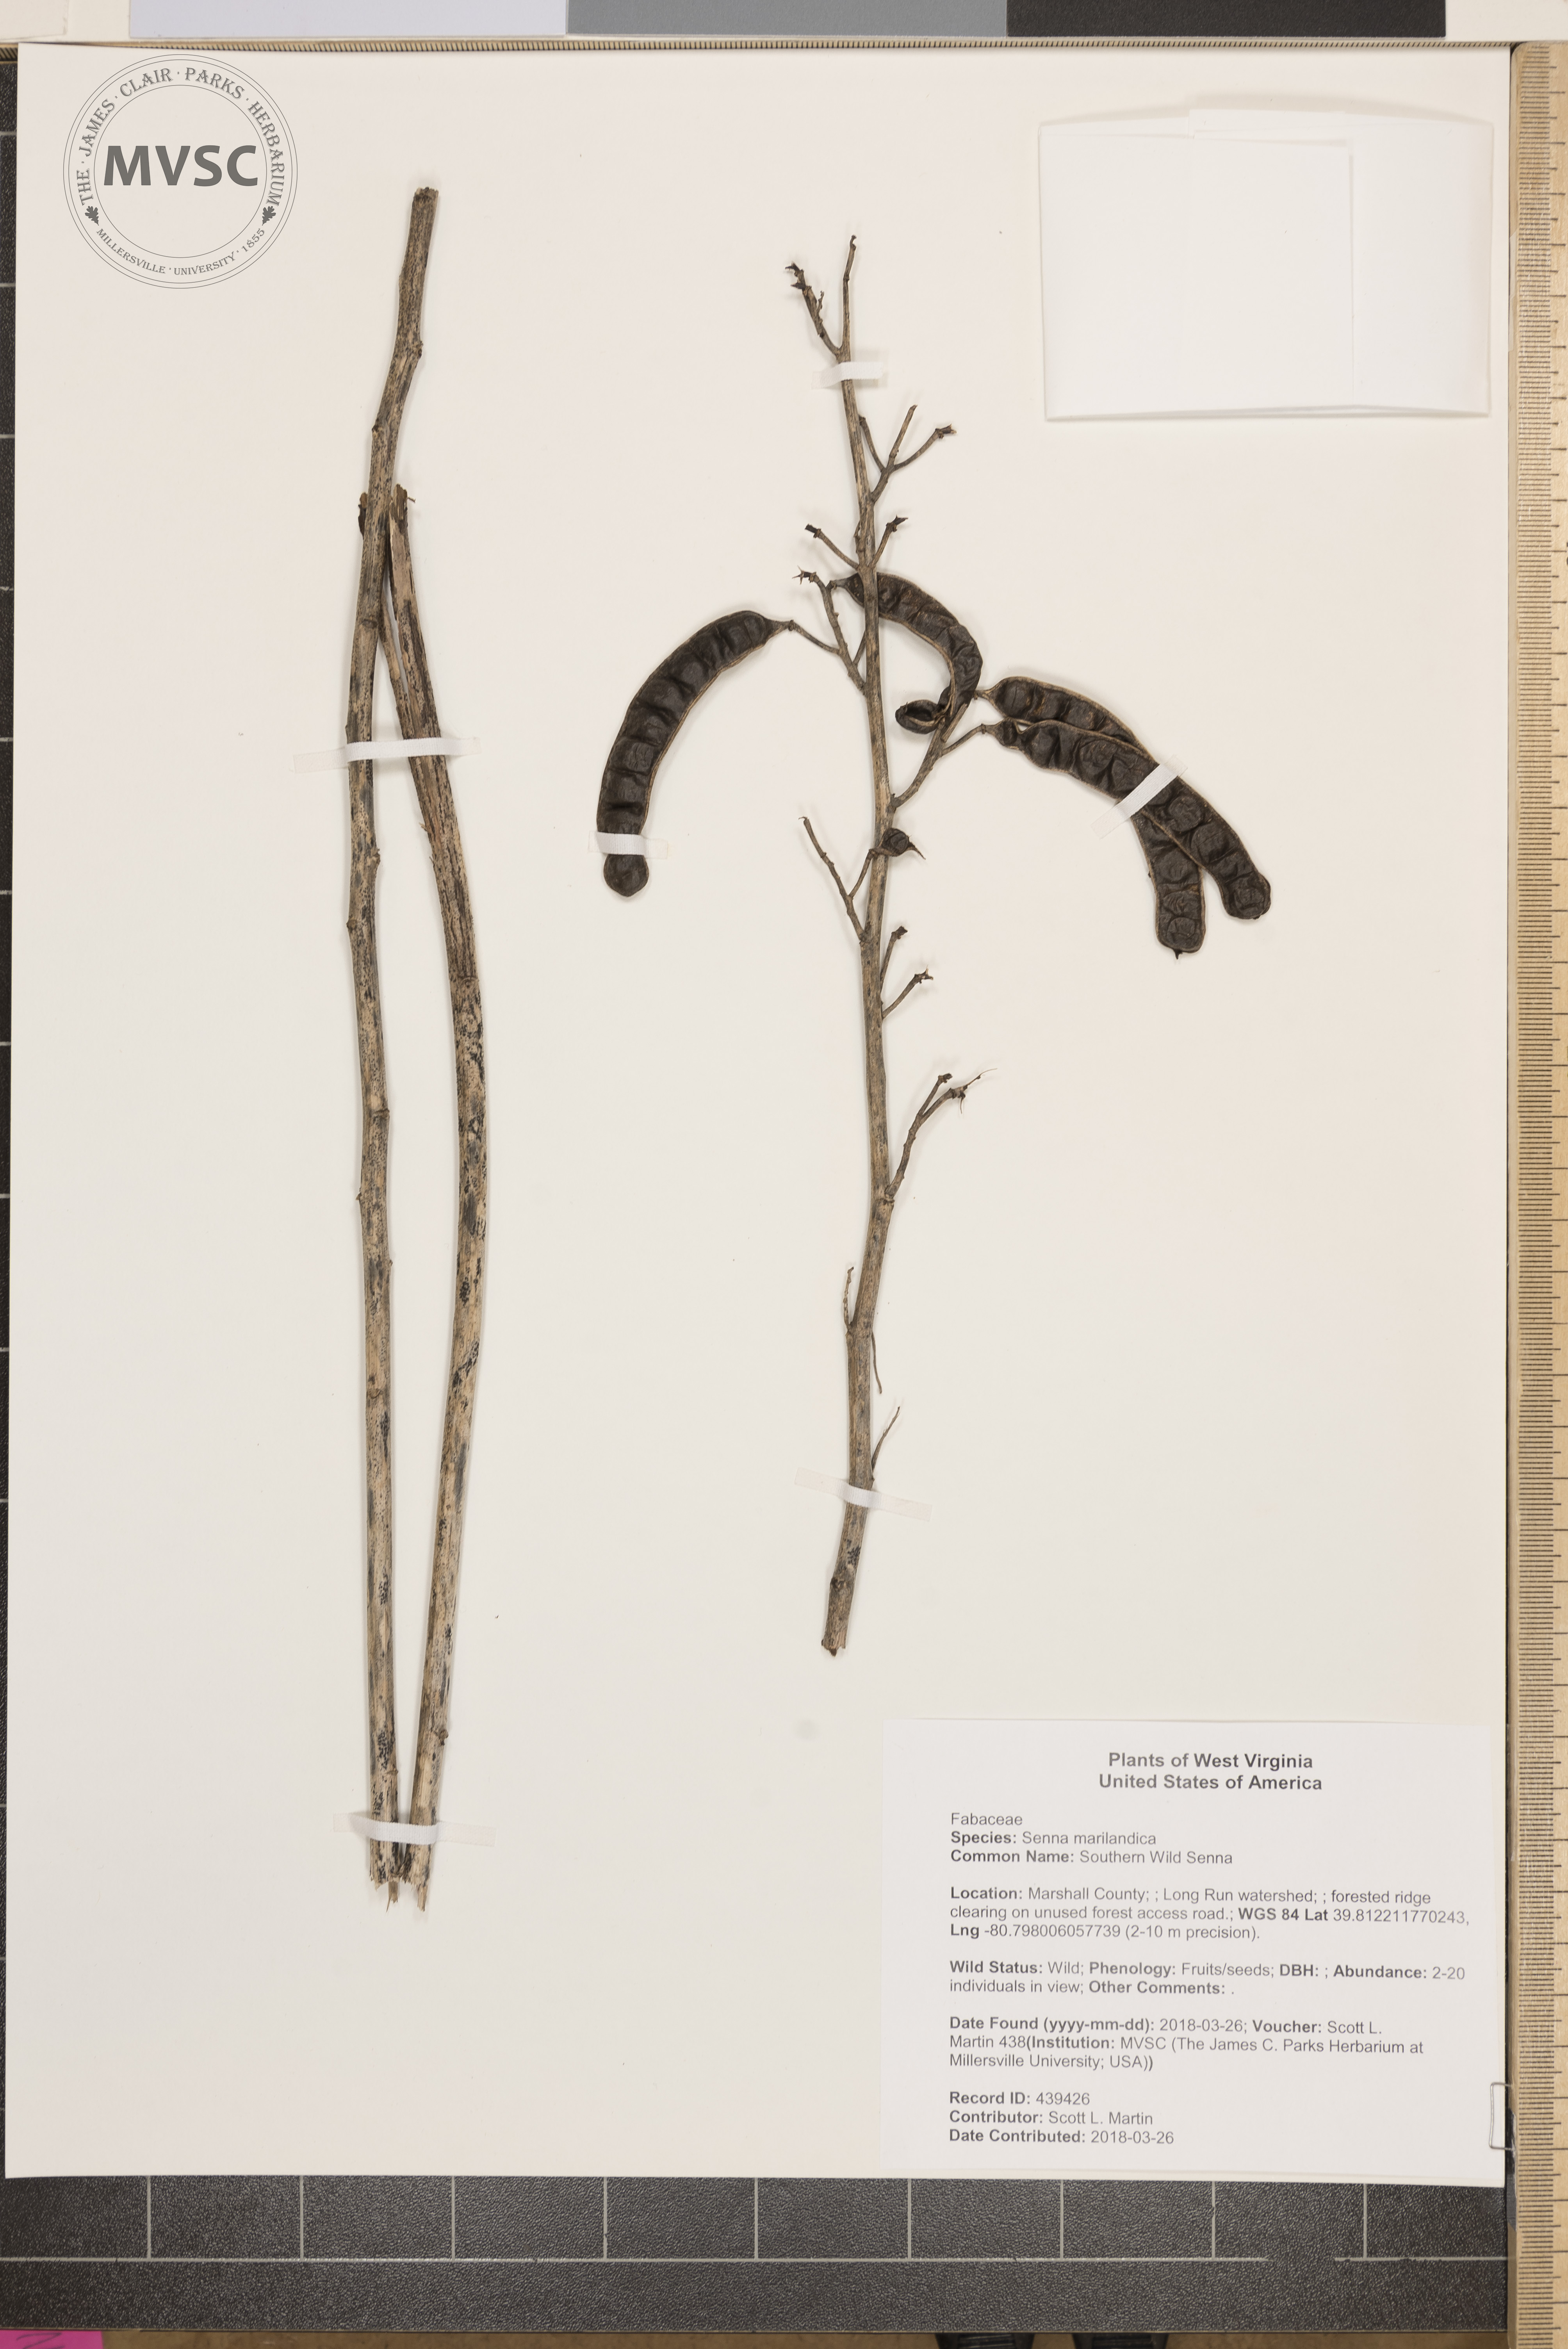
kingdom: Plantae
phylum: Tracheophyta
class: Magnoliopsida
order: Fabales
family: Fabaceae
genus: Senna
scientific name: Senna marilandica
